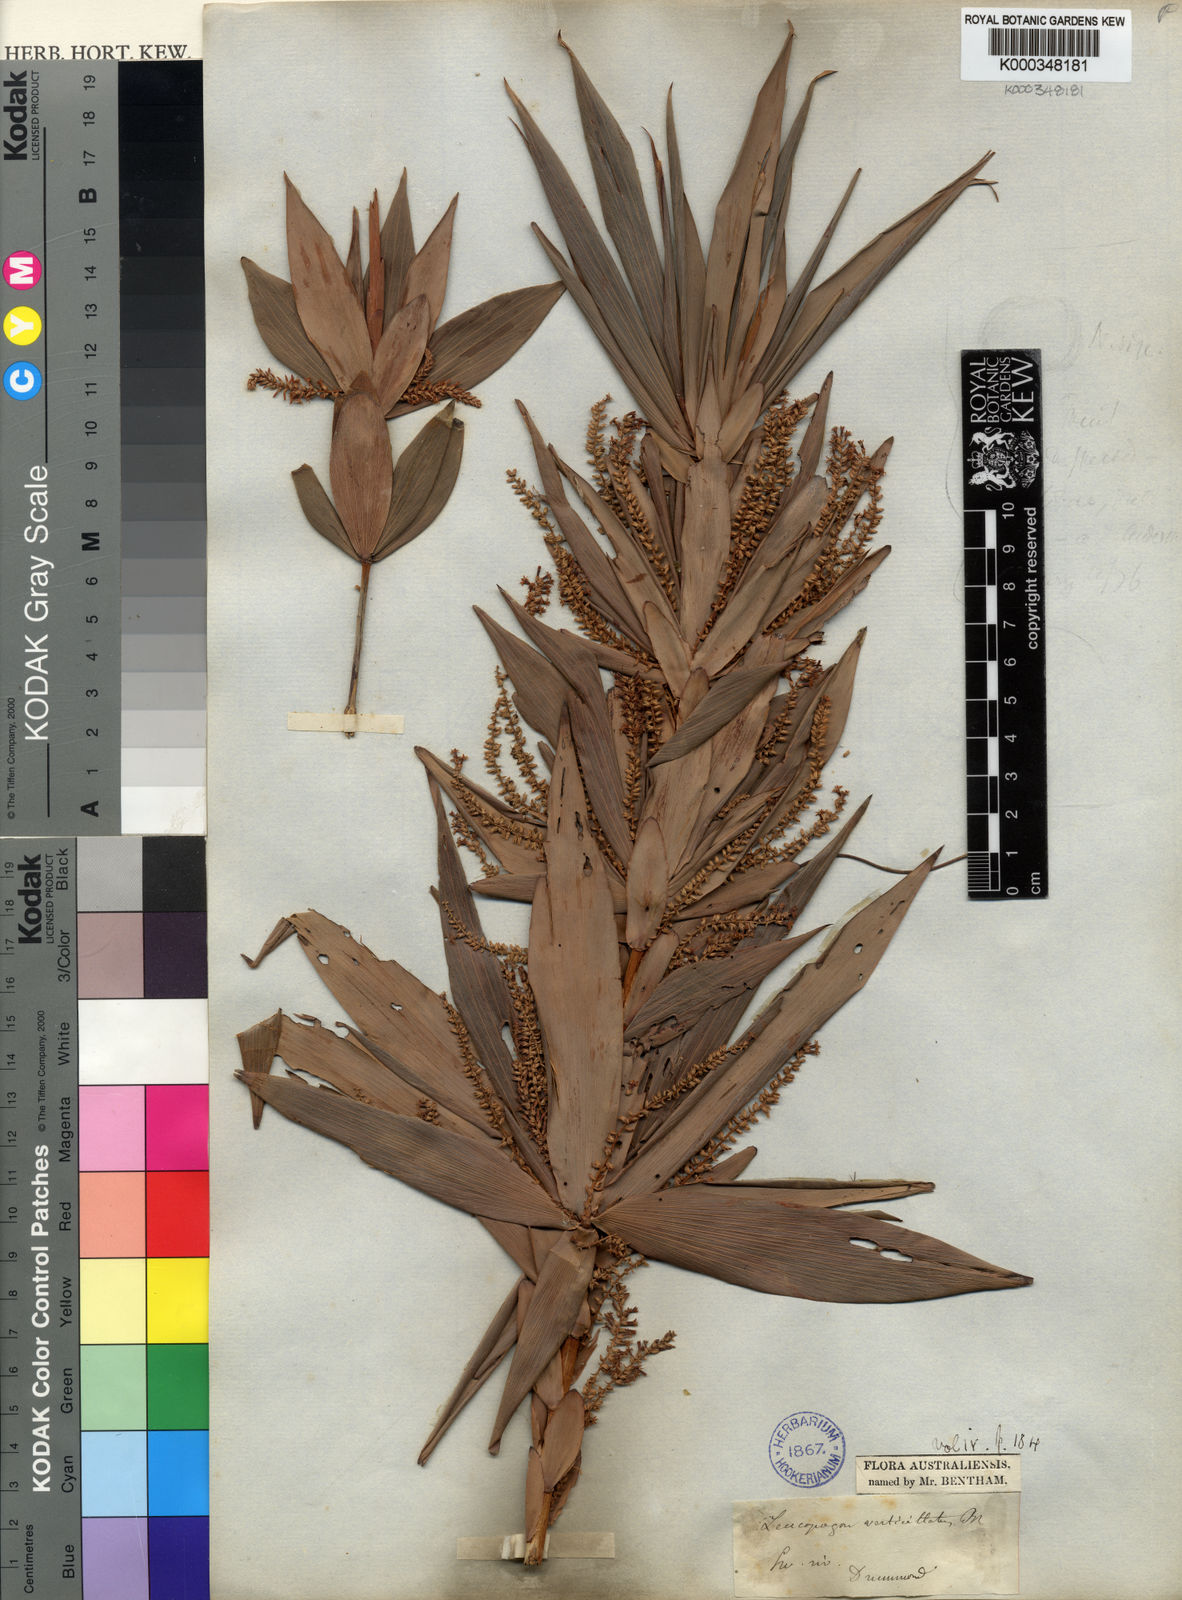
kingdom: Plantae
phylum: Tracheophyta
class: Magnoliopsida
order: Ericales
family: Ericaceae
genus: Leucopogon
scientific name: Leucopogon verticillatus
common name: Tasselshrub
